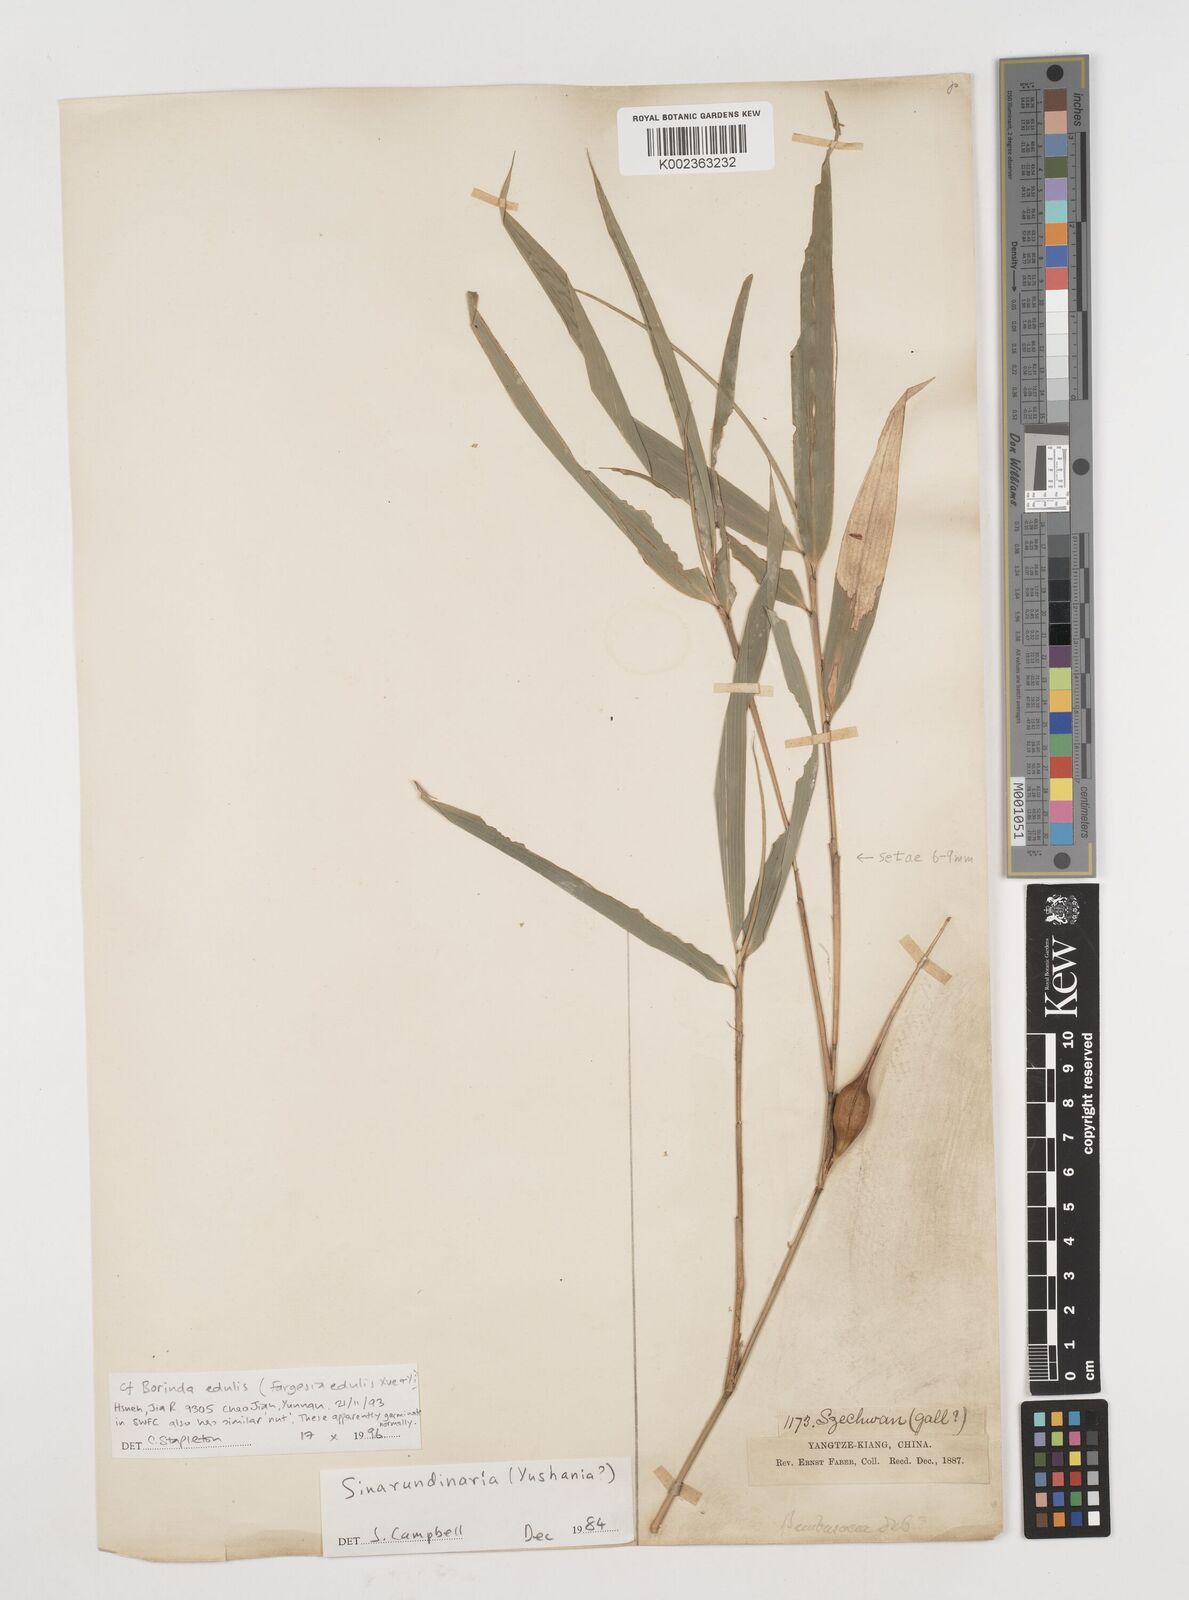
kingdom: Plantae
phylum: Tracheophyta
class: Liliopsida
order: Poales
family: Poaceae
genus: Fargesia
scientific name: Fargesia
